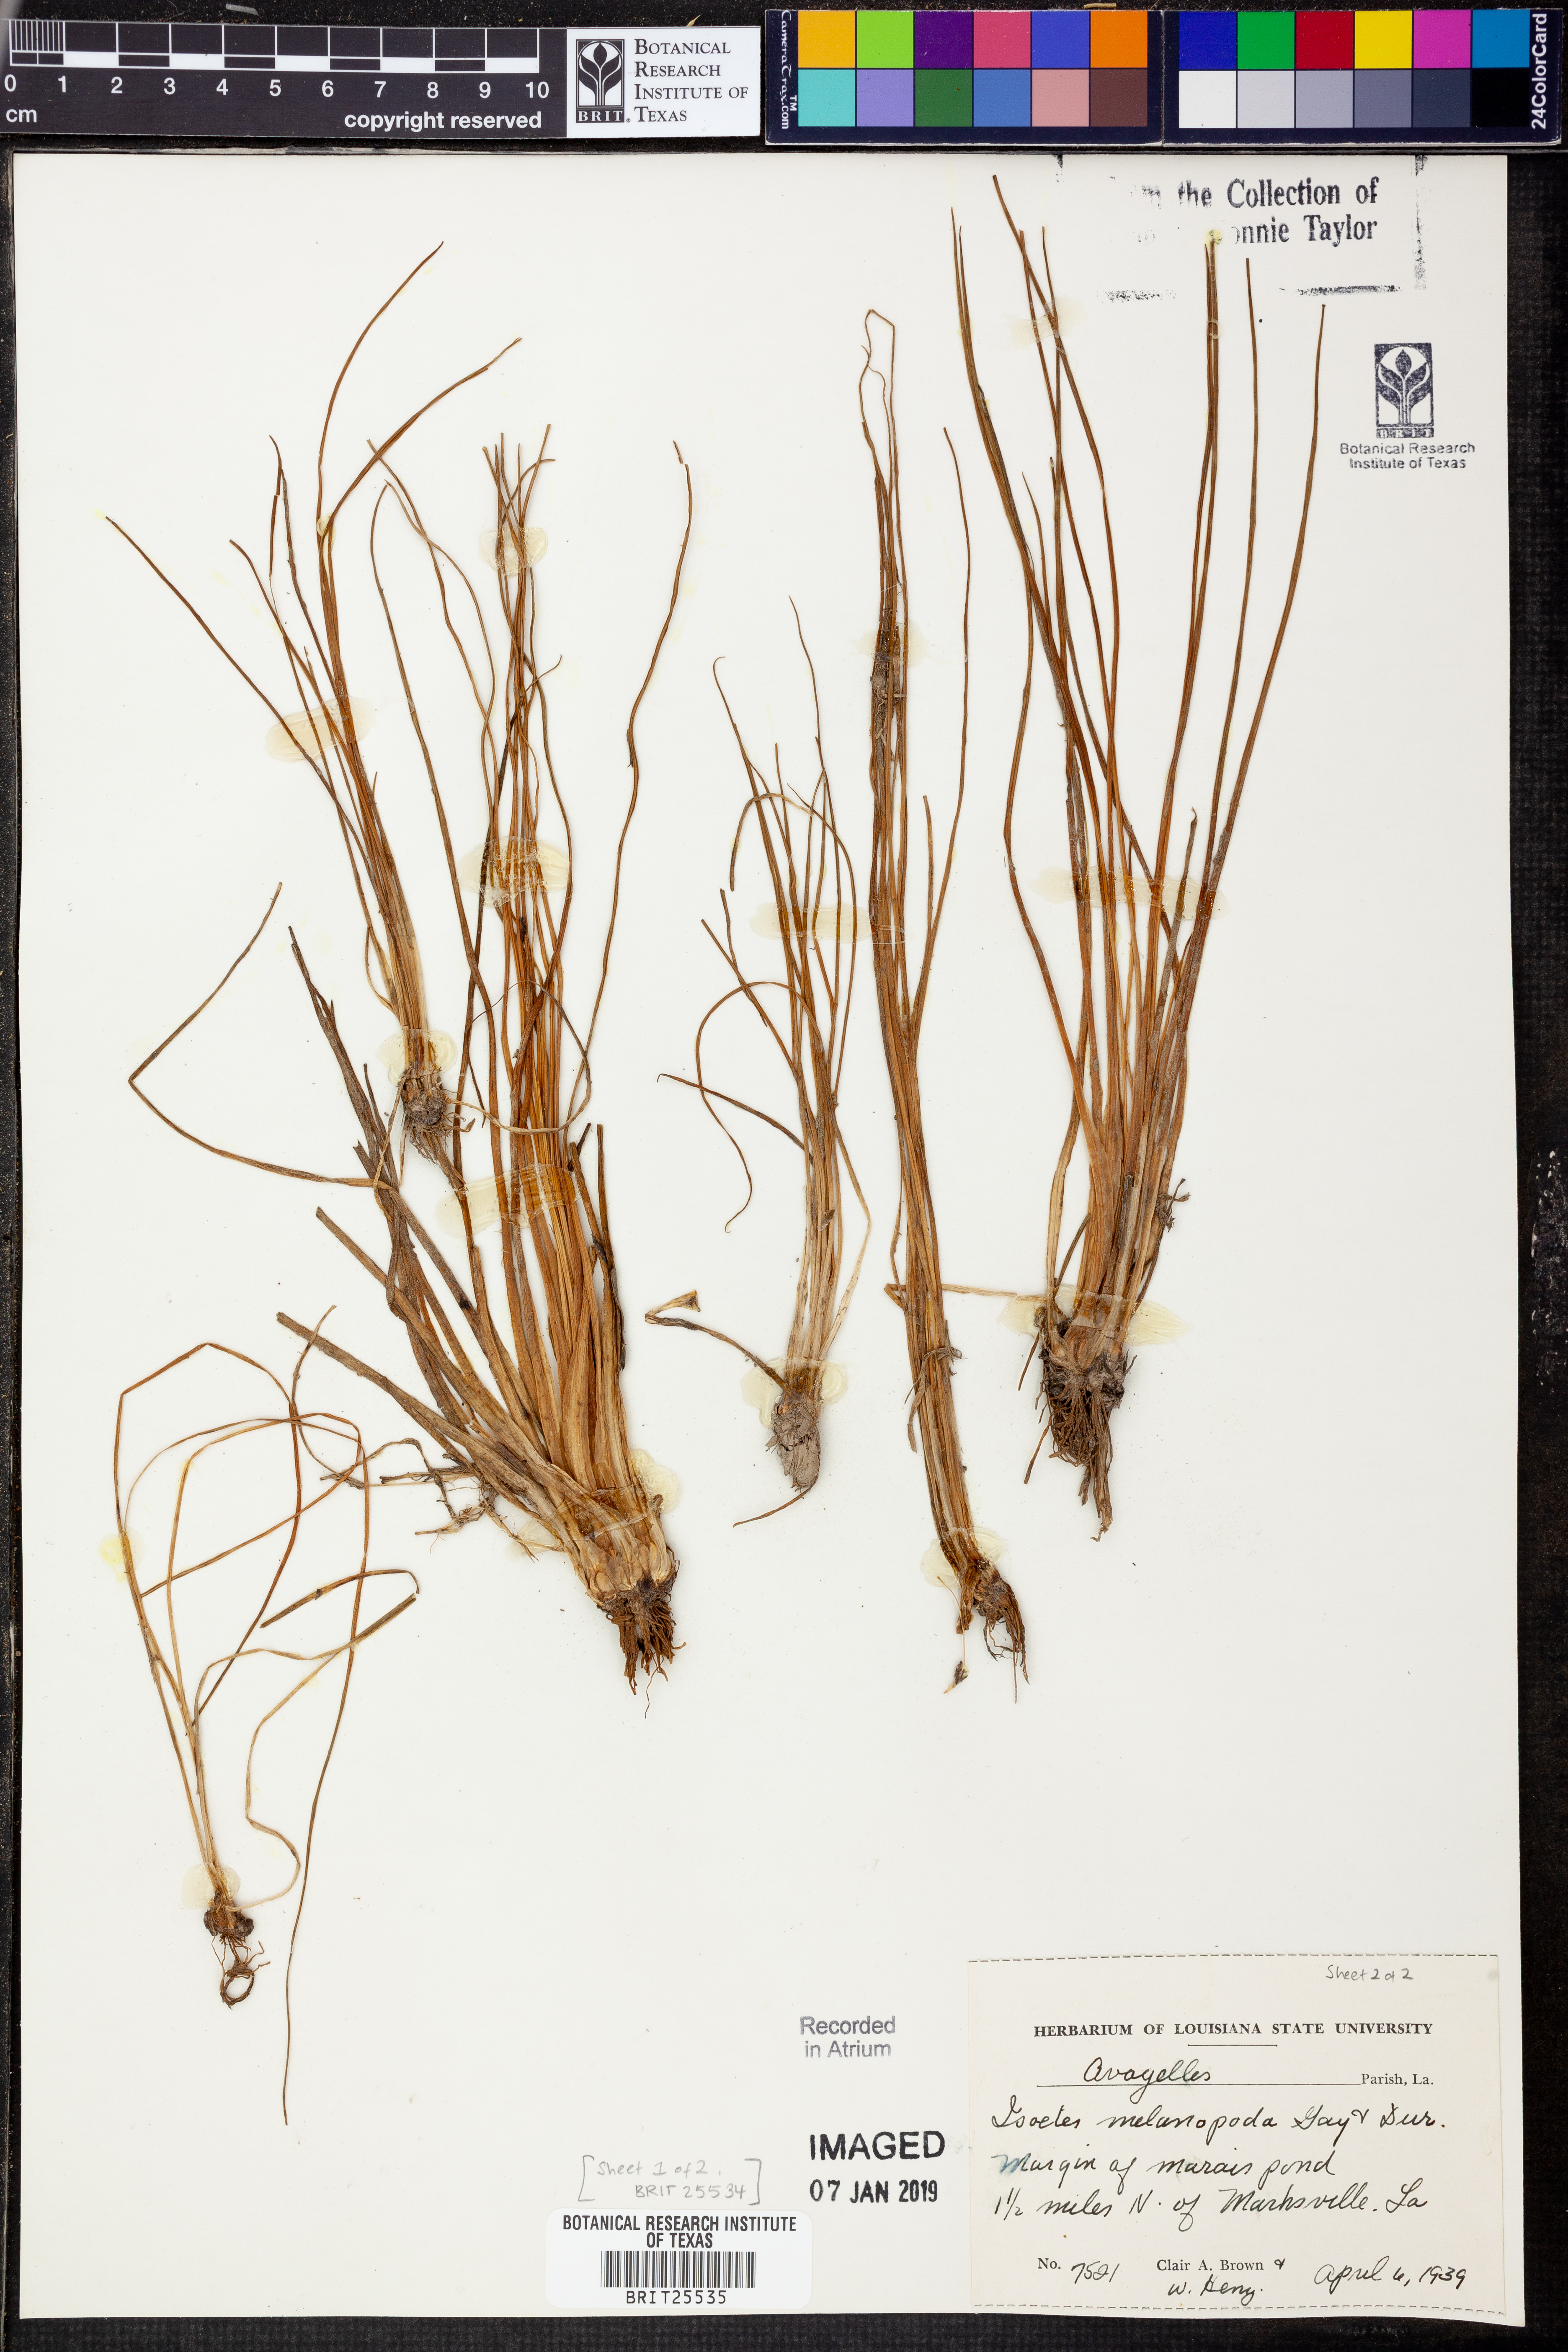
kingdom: Plantae
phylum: Tracheophyta
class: Lycopodiopsida
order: Isoetales
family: Isoetaceae
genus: Isoetes
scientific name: Isoetes melanopoda
